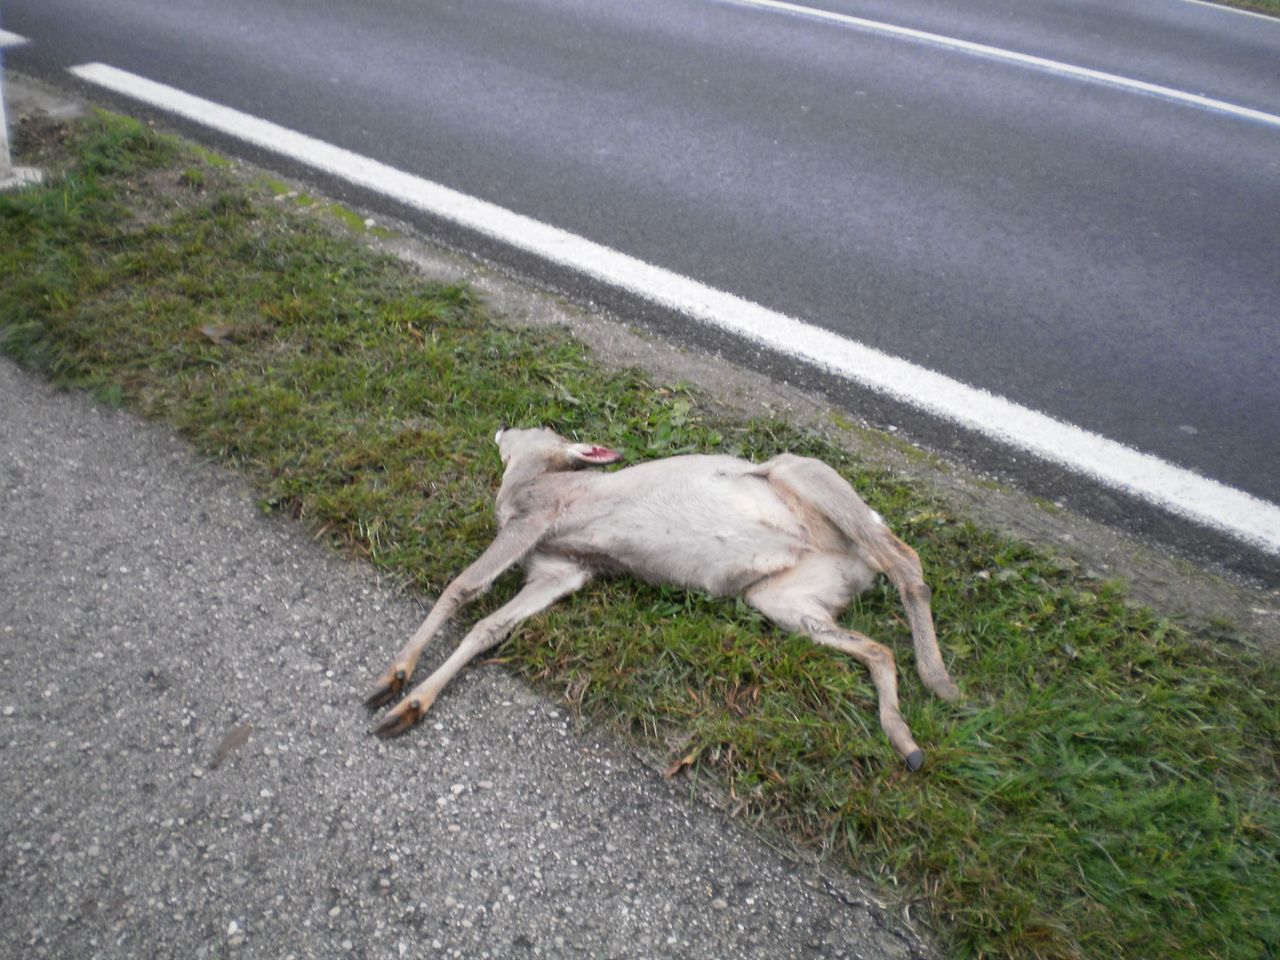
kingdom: Animalia
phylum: Chordata
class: Mammalia
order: Artiodactyla
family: Cervidae
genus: Capreolus
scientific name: Capreolus capreolus
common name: Western roe deer
